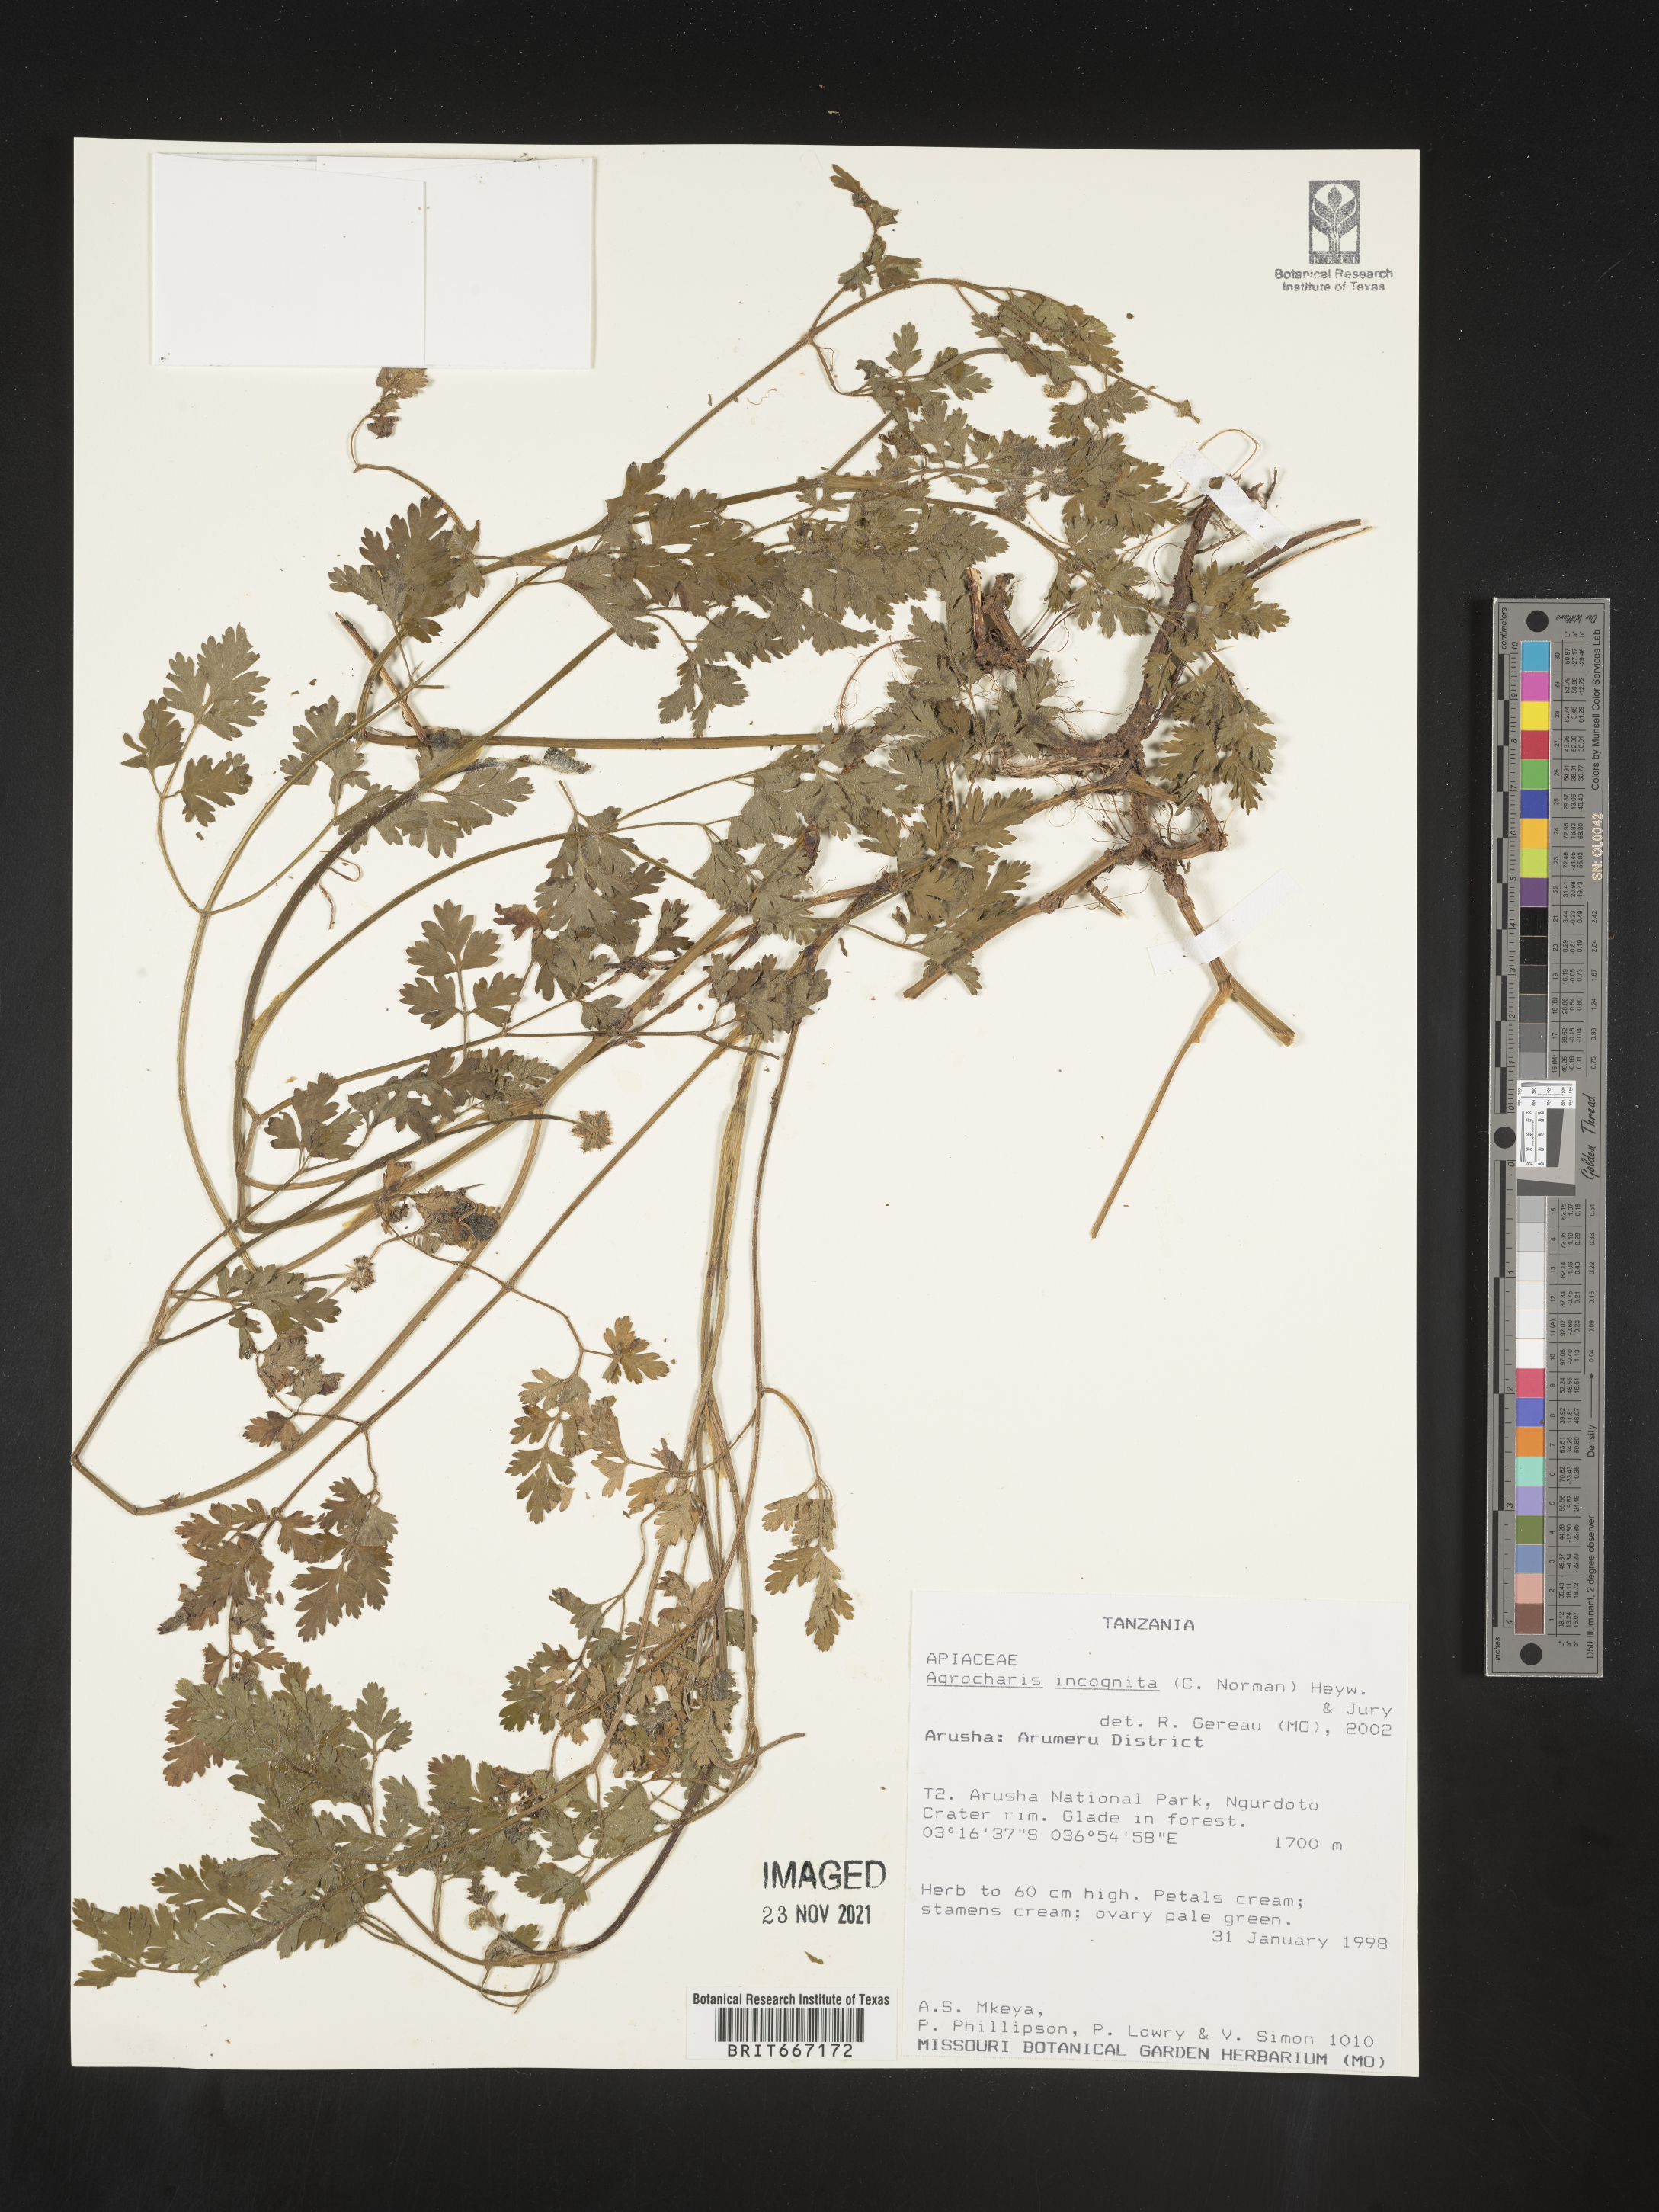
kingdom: Plantae
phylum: Tracheophyta
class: Magnoliopsida
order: Apiales
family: Apiaceae
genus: Daucus
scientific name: Daucus
